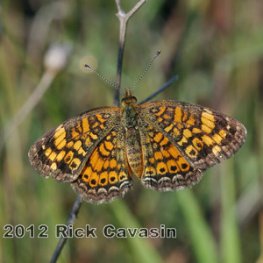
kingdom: Animalia
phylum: Arthropoda
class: Insecta
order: Lepidoptera
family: Nymphalidae
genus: Phyciodes
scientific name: Phyciodes tharos
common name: Pearl Crescent
